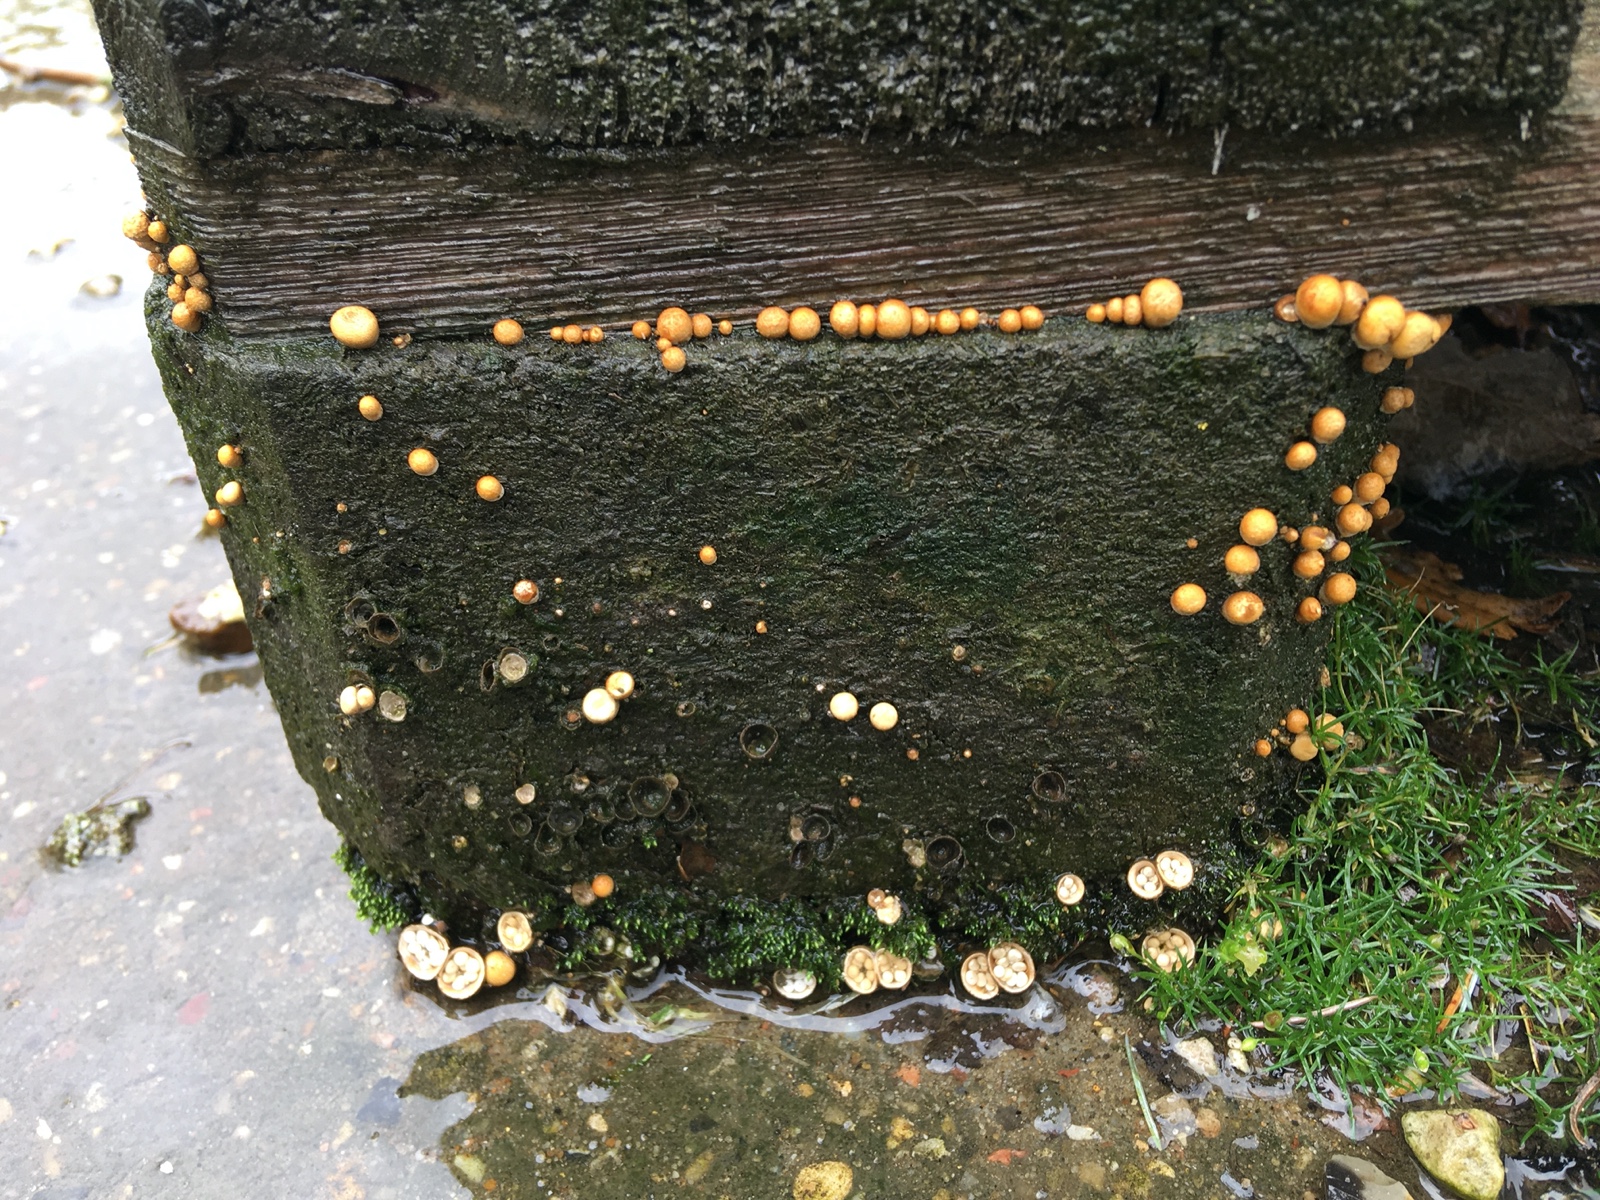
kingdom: Fungi
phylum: Basidiomycota
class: Agaricomycetes
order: Agaricales
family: Nidulariaceae
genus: Crucibulum
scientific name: Crucibulum crucibuliforme
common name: krukkesvamp
